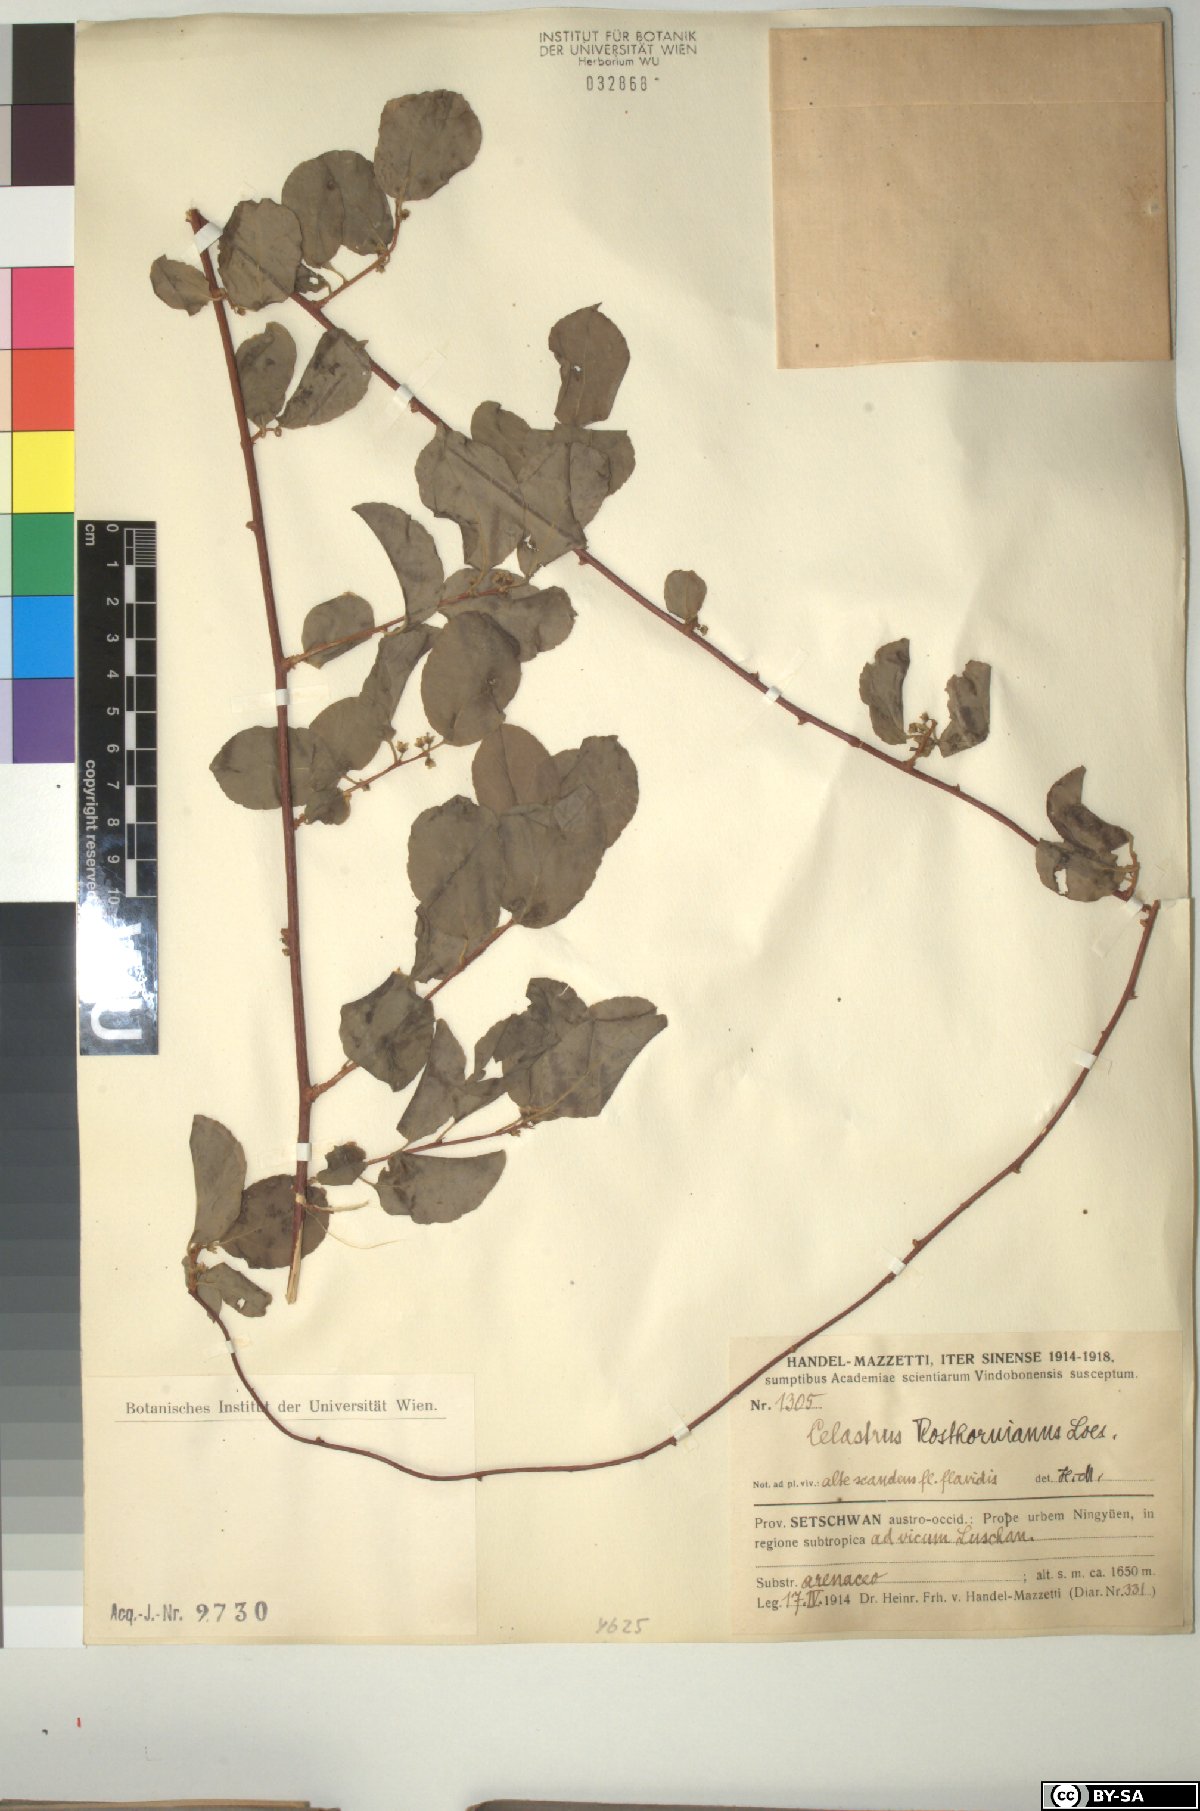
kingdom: Plantae
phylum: Tracheophyta
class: Magnoliopsida
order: Celastrales
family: Celastraceae
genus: Celastrus
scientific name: Celastrus rosthornianus
